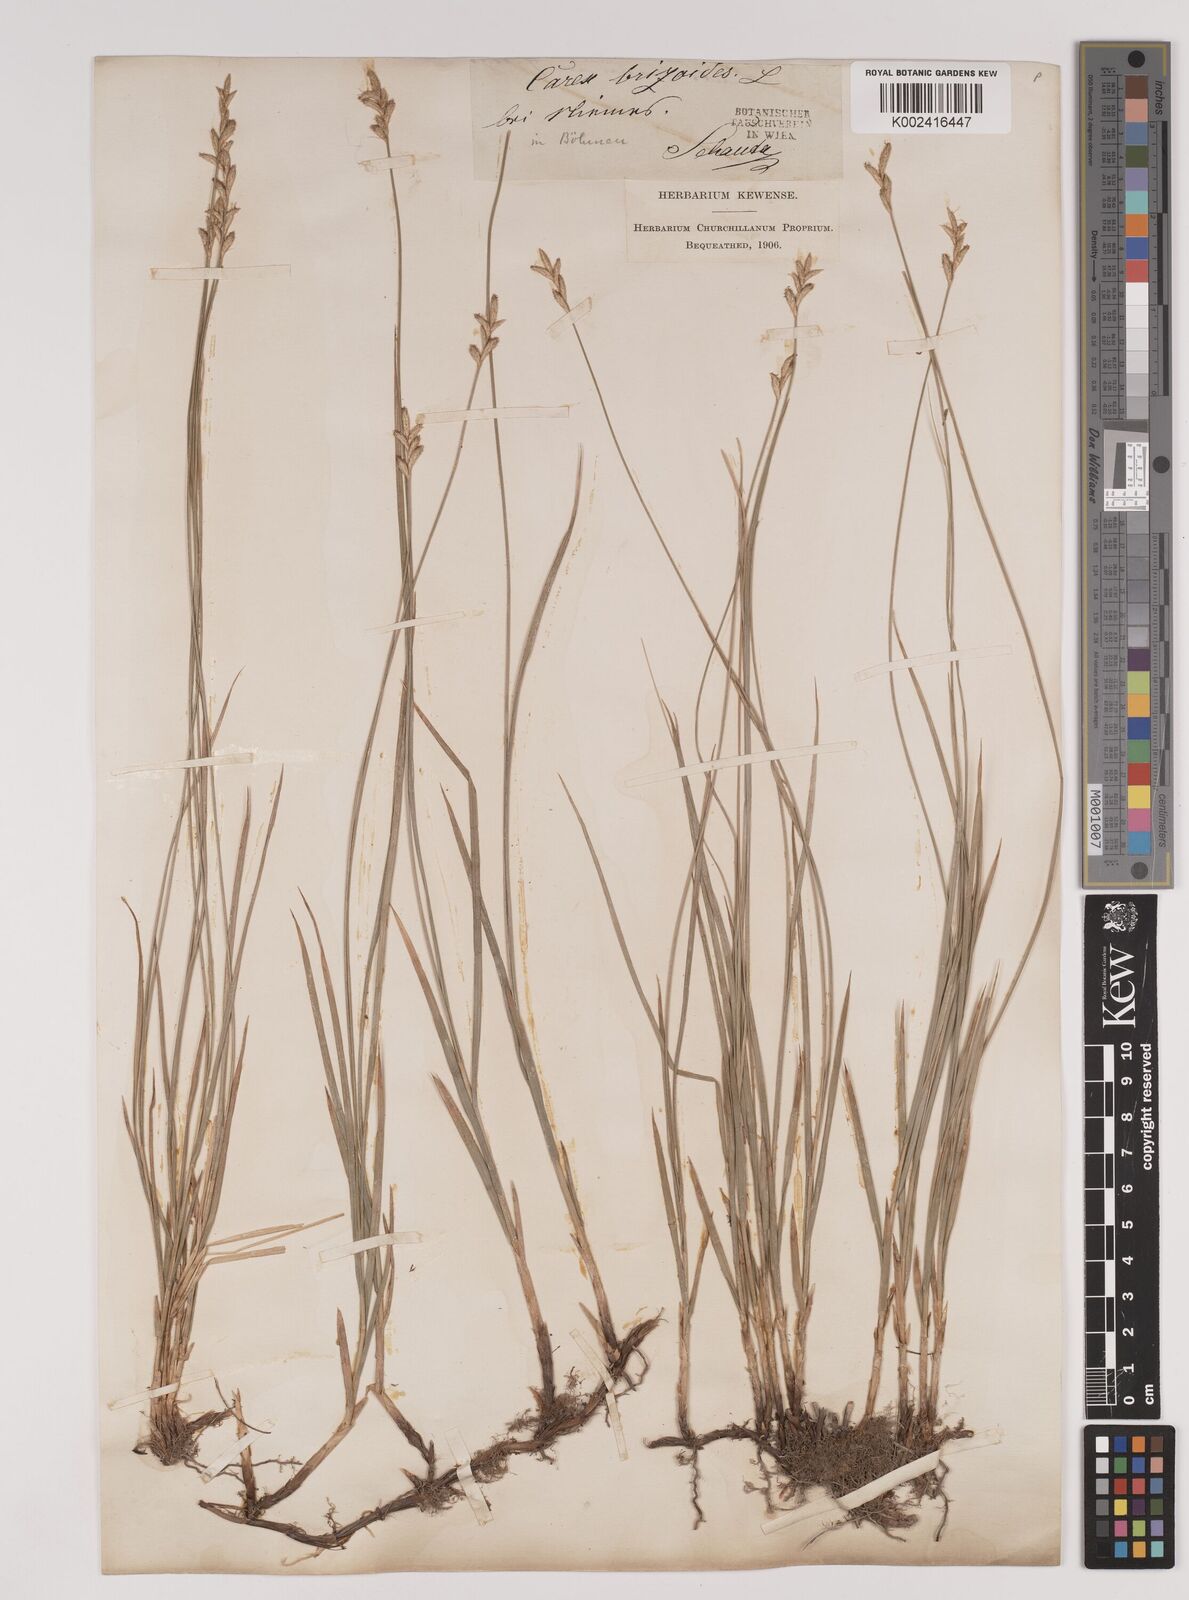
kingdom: Plantae
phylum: Tracheophyta
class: Liliopsida
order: Poales
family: Cyperaceae
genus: Carex
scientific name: Carex brizoides
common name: Quaking-grass sedge
